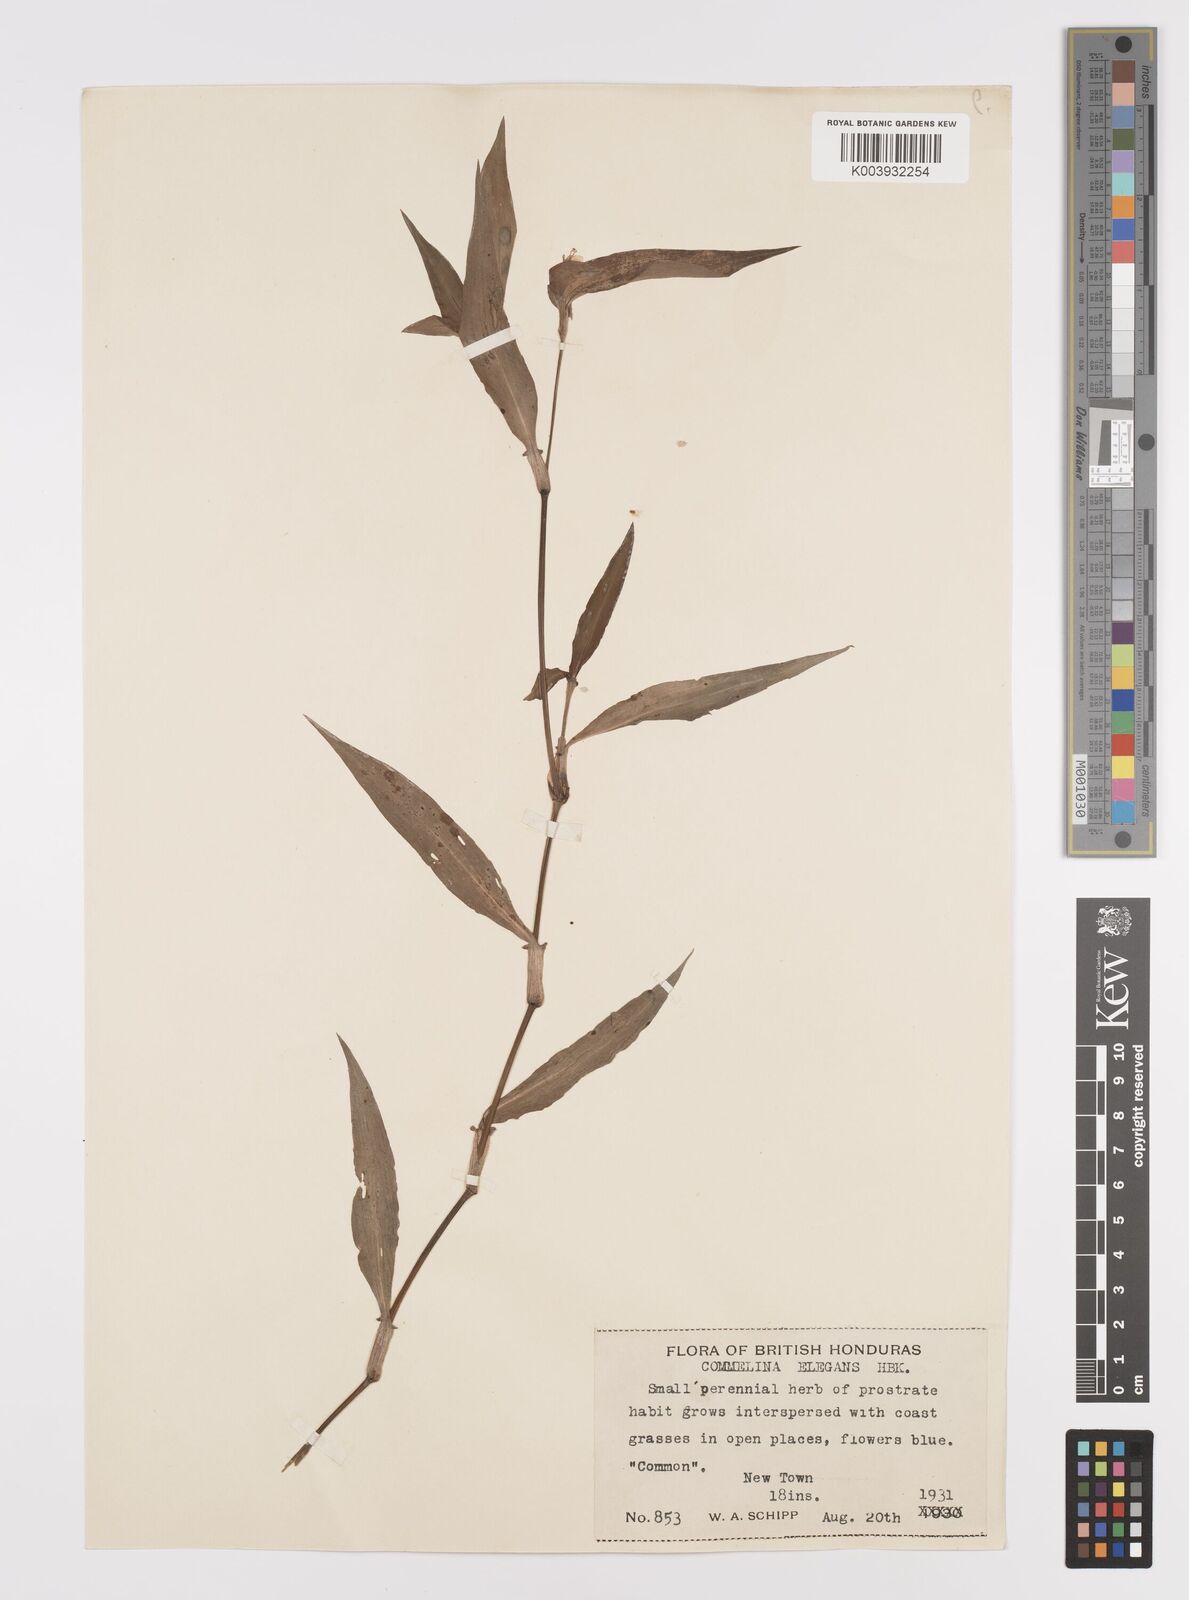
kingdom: Plantae
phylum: Tracheophyta
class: Liliopsida
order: Commelinales
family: Commelinaceae
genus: Commelina
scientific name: Commelina erecta
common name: Blousel blommetjie
